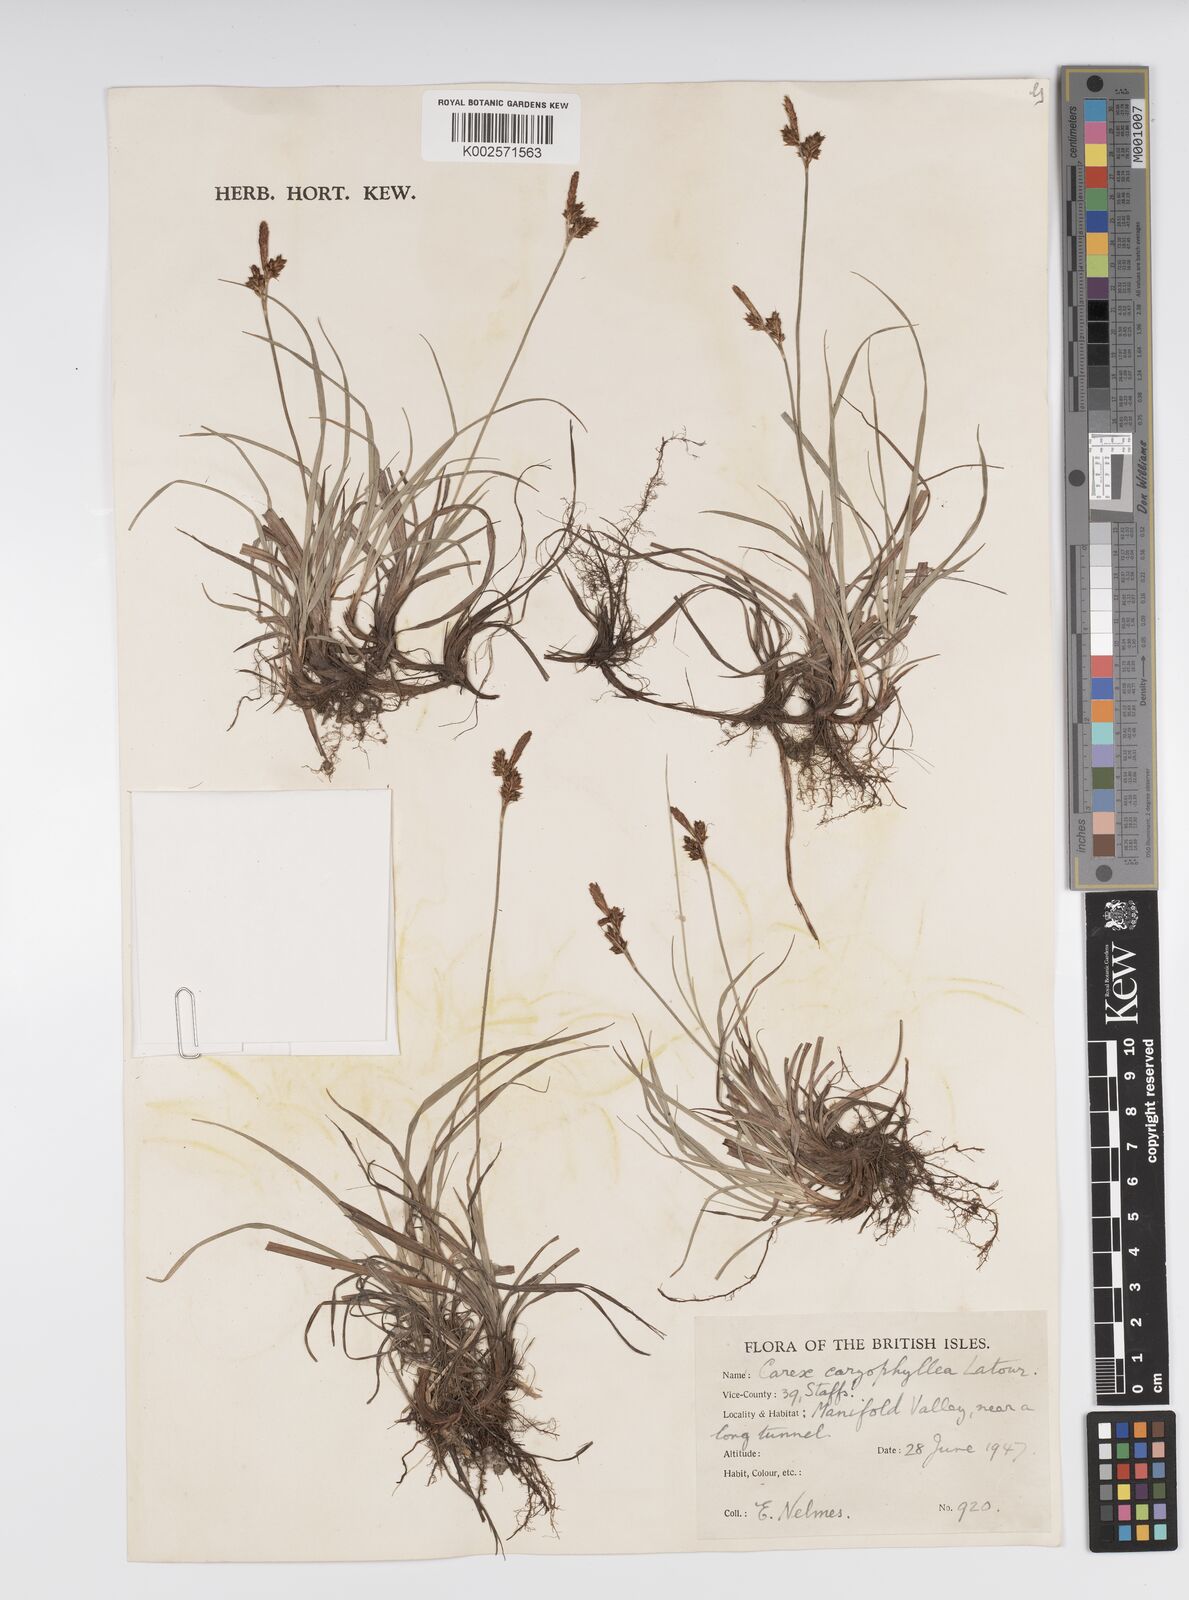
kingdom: Plantae
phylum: Tracheophyta
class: Liliopsida
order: Poales
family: Cyperaceae
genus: Carex
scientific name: Carex caryophyllea
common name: Spring sedge
